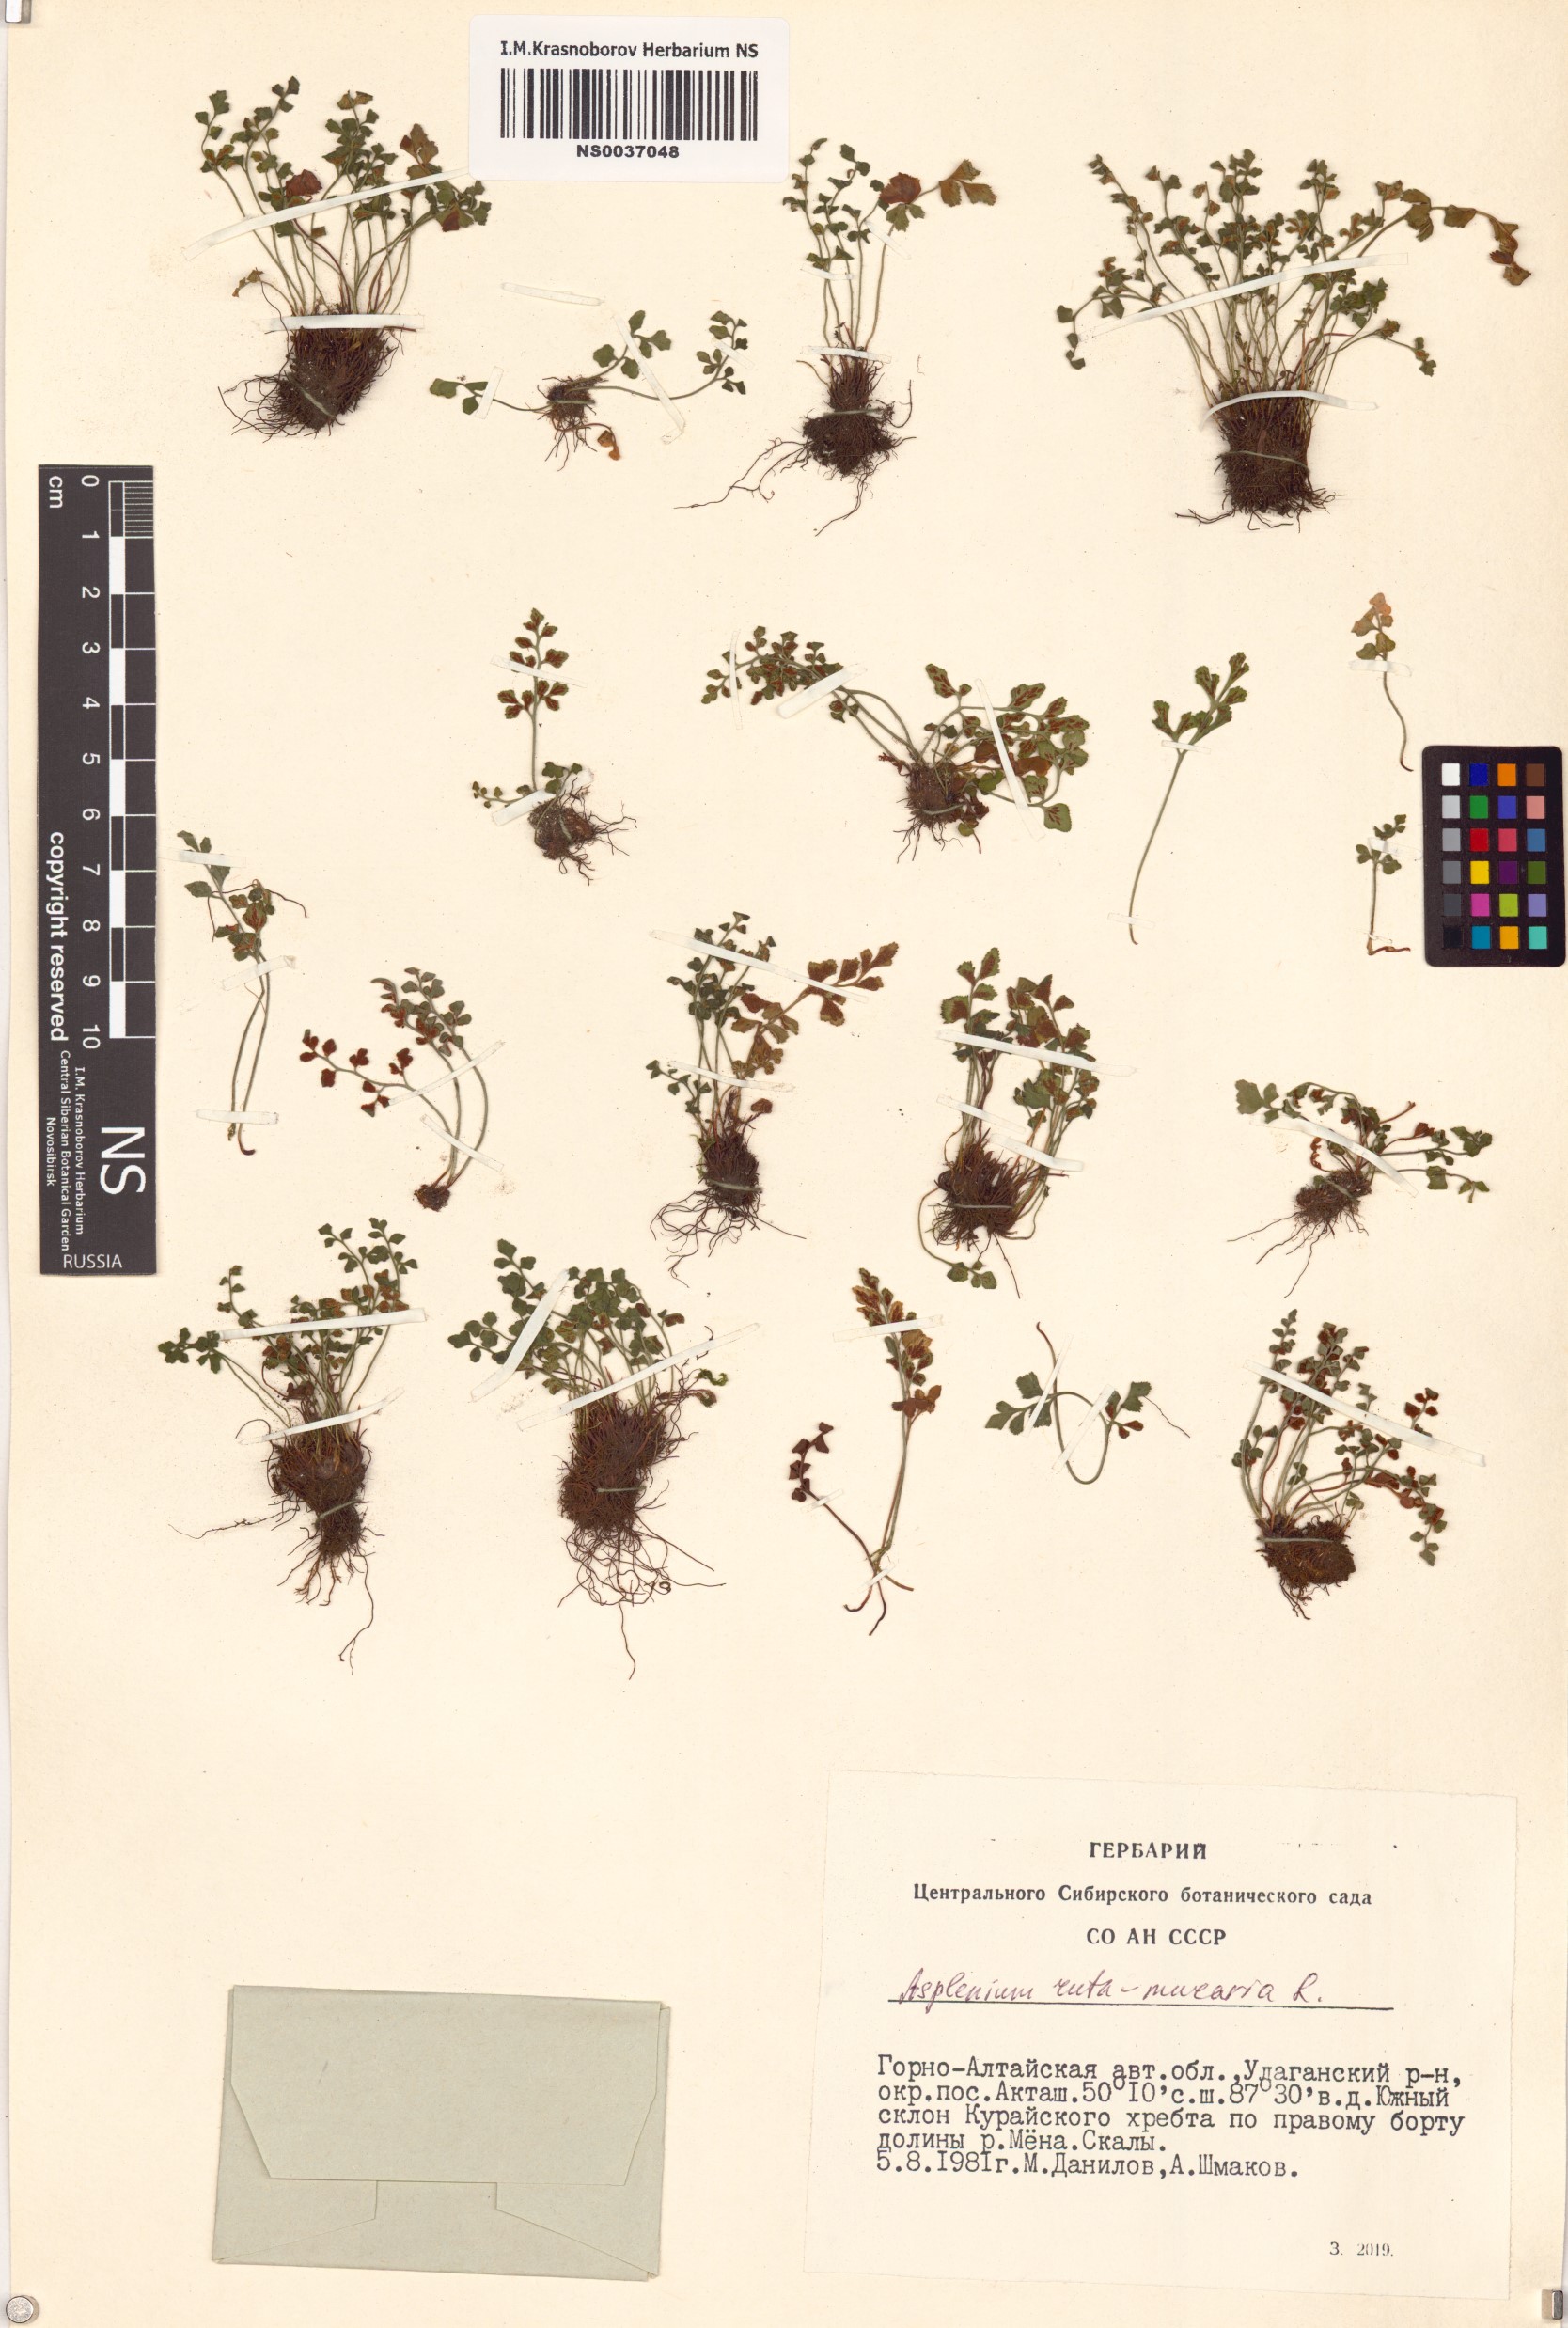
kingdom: Plantae
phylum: Tracheophyta
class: Polypodiopsida
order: Polypodiales
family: Aspleniaceae
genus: Asplenium
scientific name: Asplenium ruta-muraria
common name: Wall-rue
